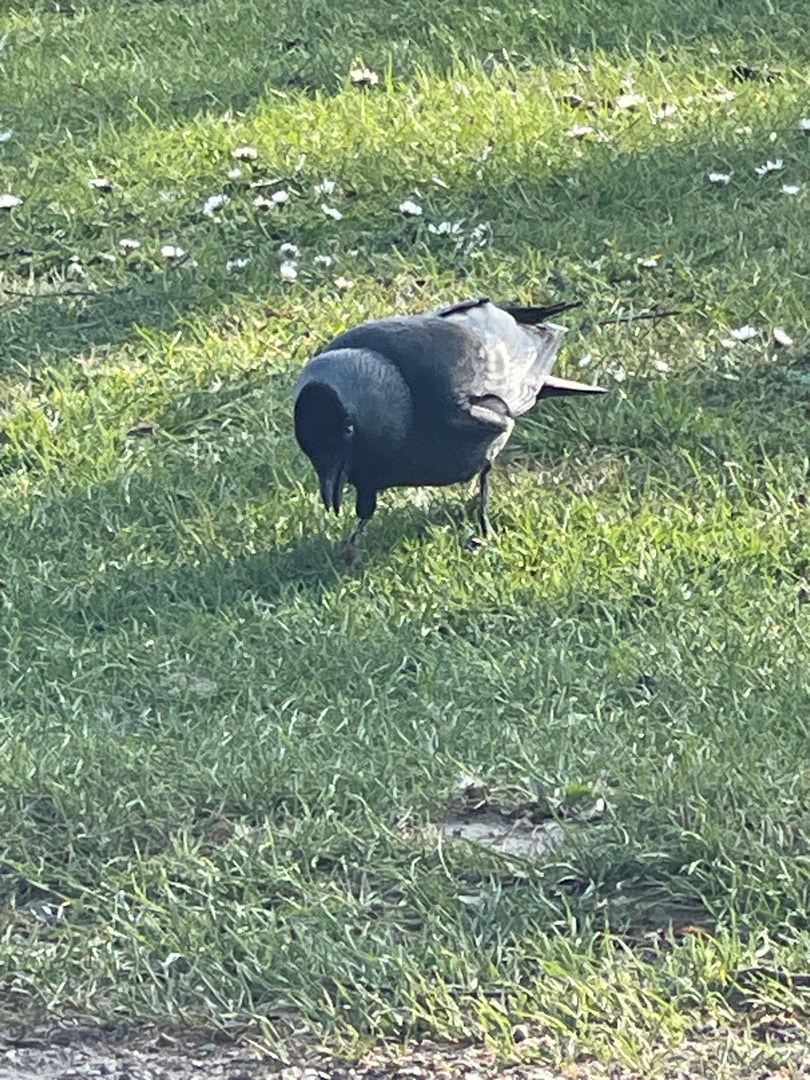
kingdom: Animalia
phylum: Chordata
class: Aves
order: Passeriformes
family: Corvidae
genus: Coloeus
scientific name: Coloeus monedula
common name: Allike
